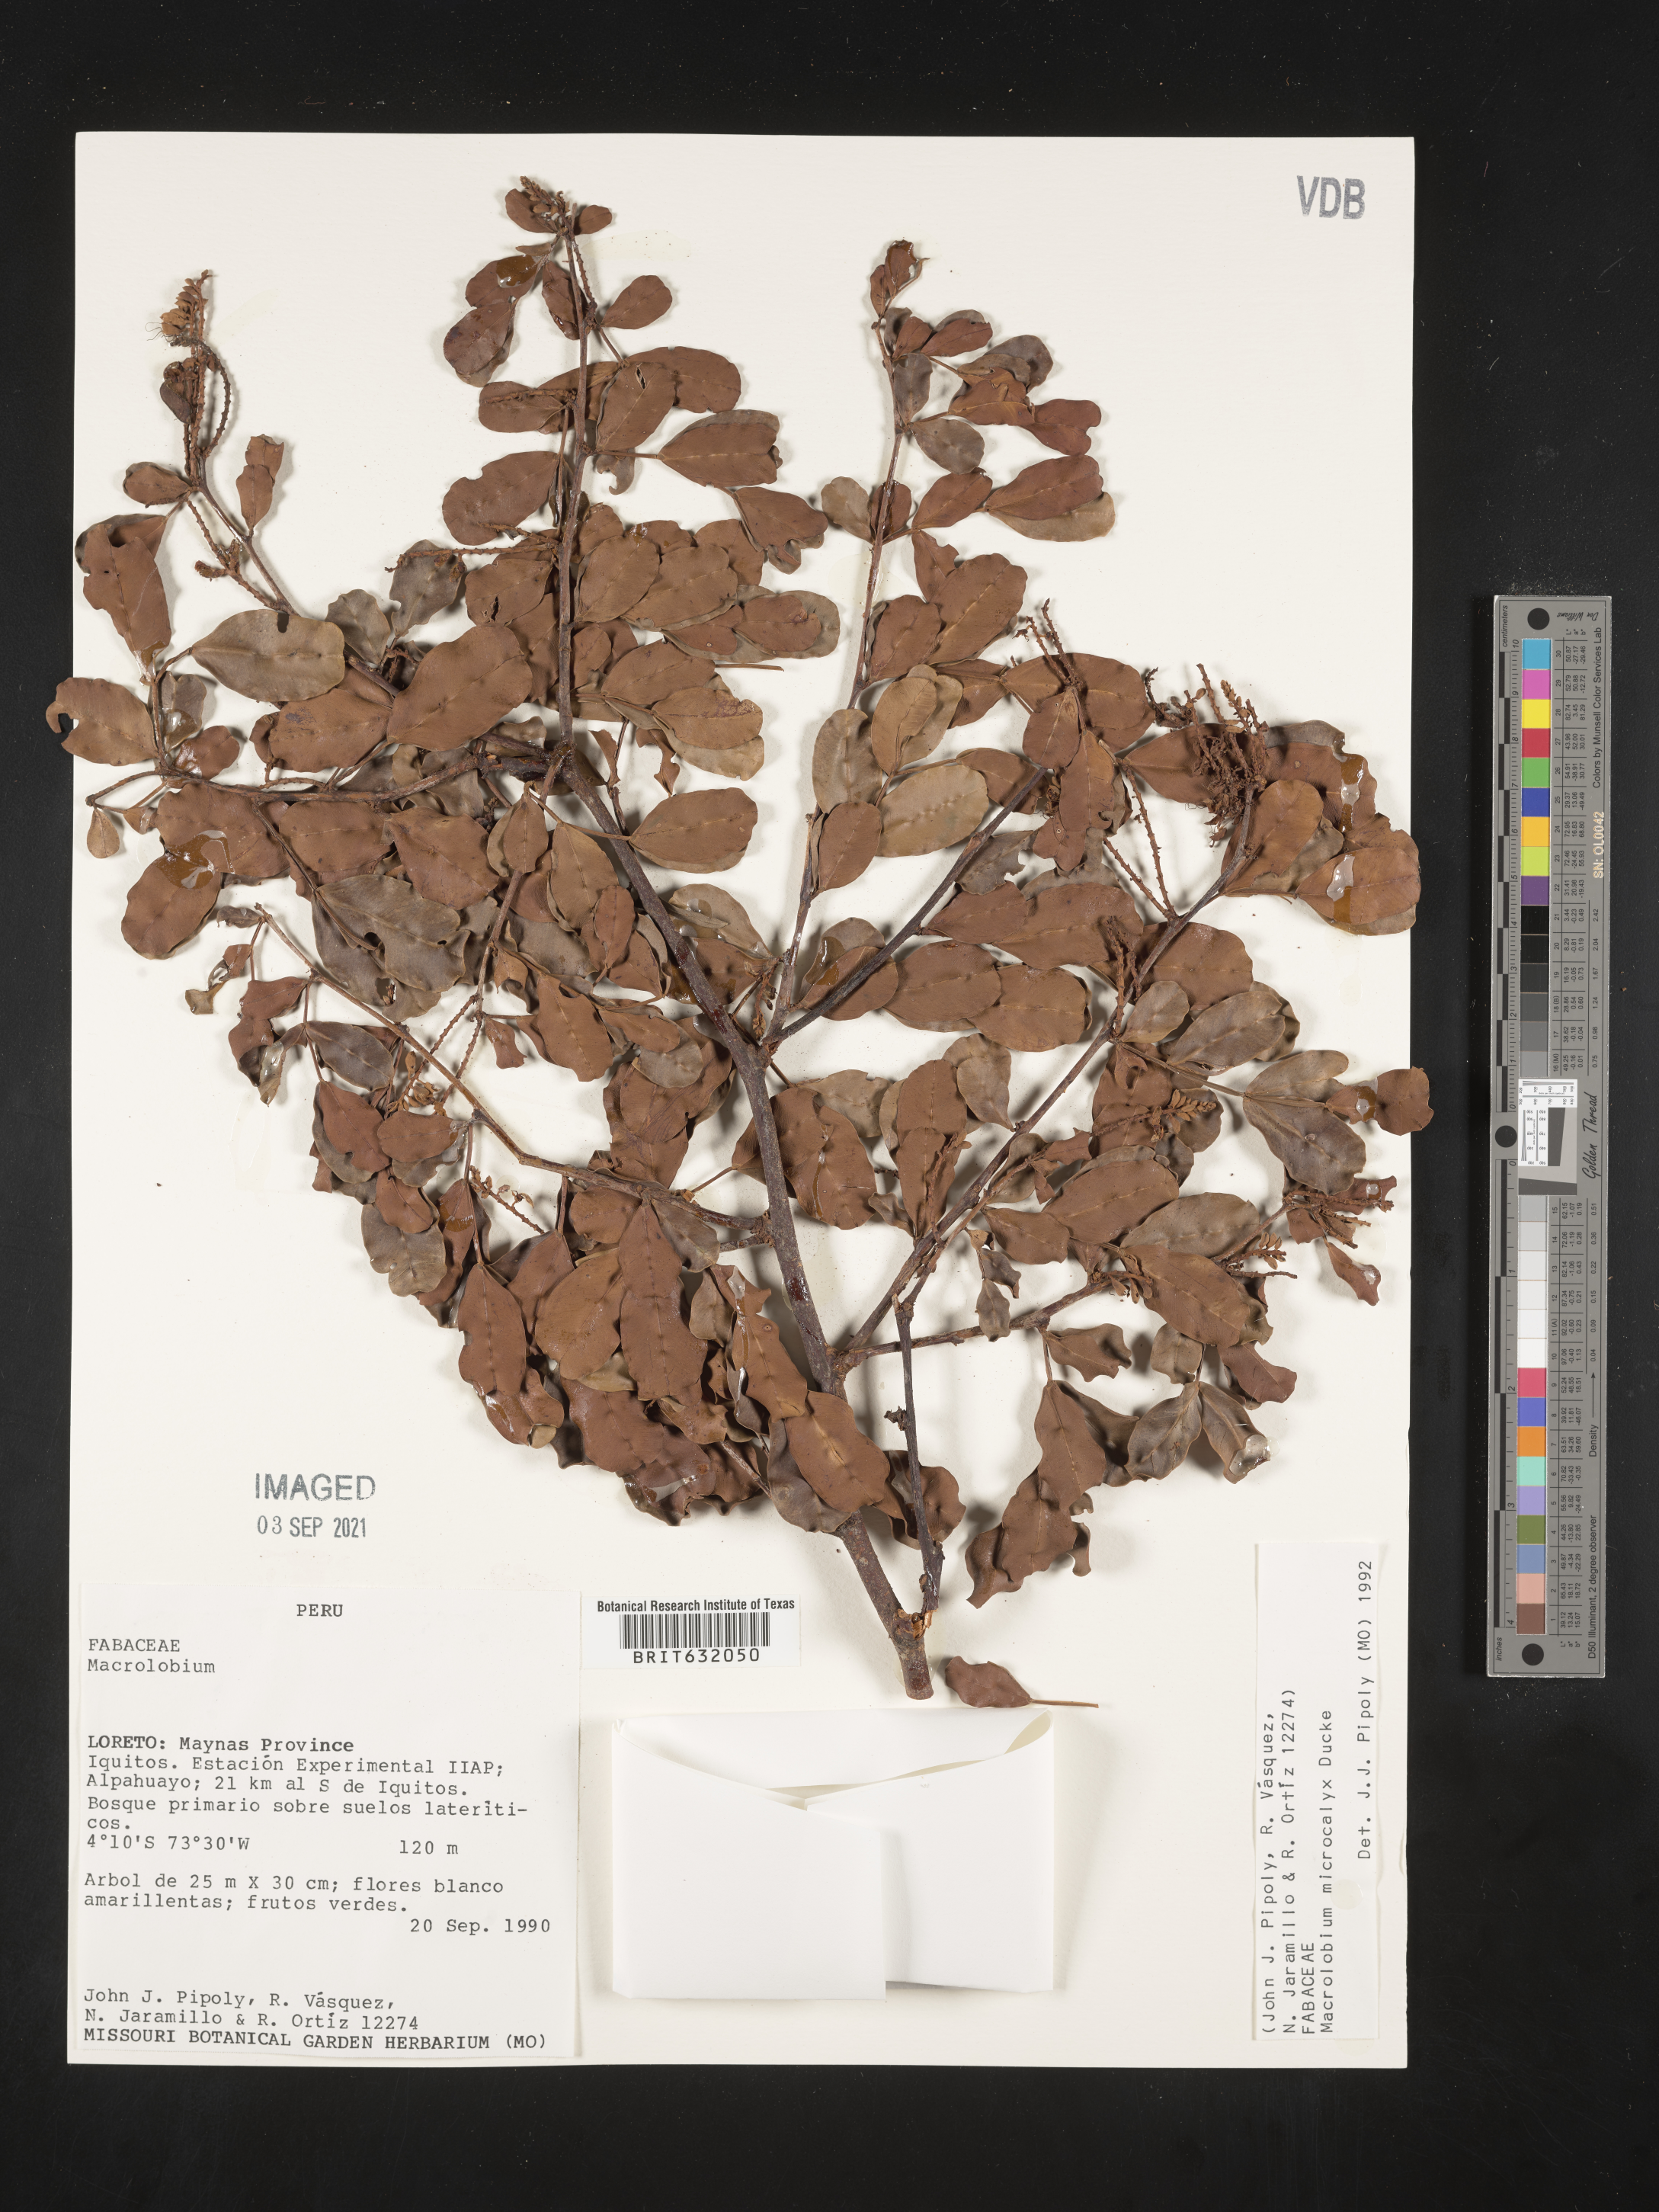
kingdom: Plantae
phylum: Tracheophyta
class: Magnoliopsida
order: Fabales
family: Fabaceae
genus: Macrolobium
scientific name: Macrolobium
